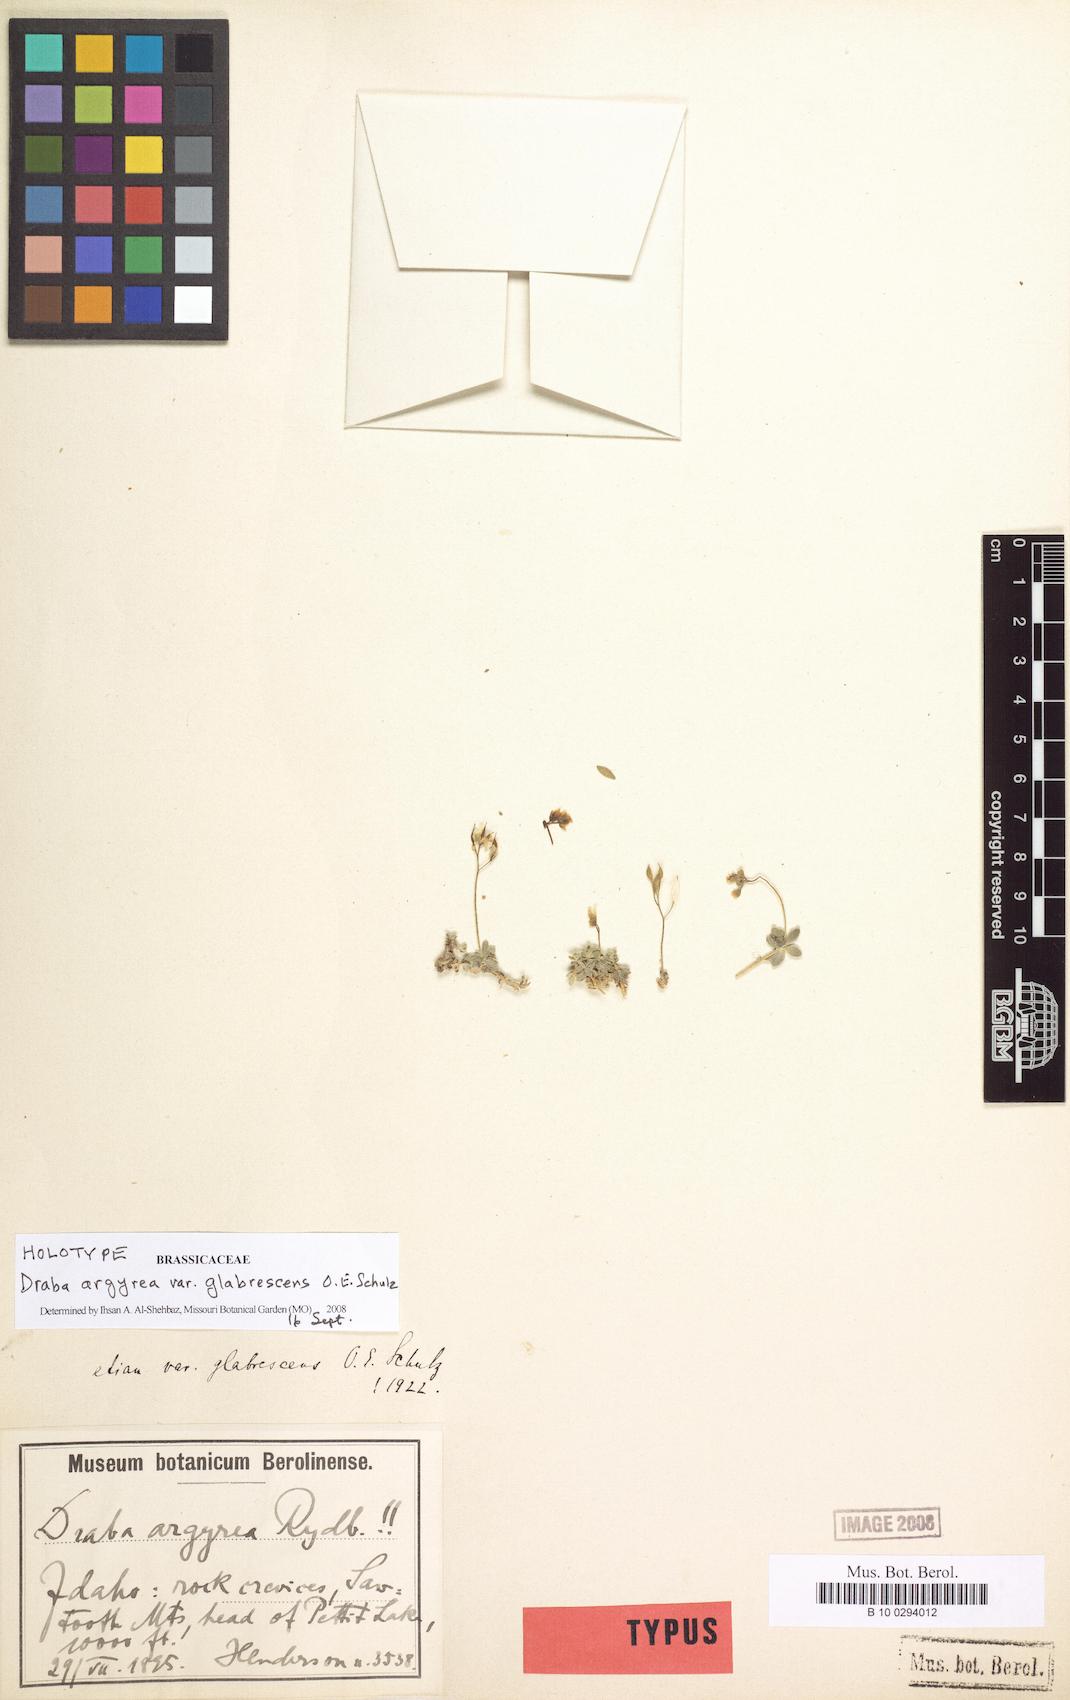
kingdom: Plantae
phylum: Tracheophyta
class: Magnoliopsida
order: Brassicales
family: Brassicaceae
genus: Draba
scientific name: Draba argyrea
